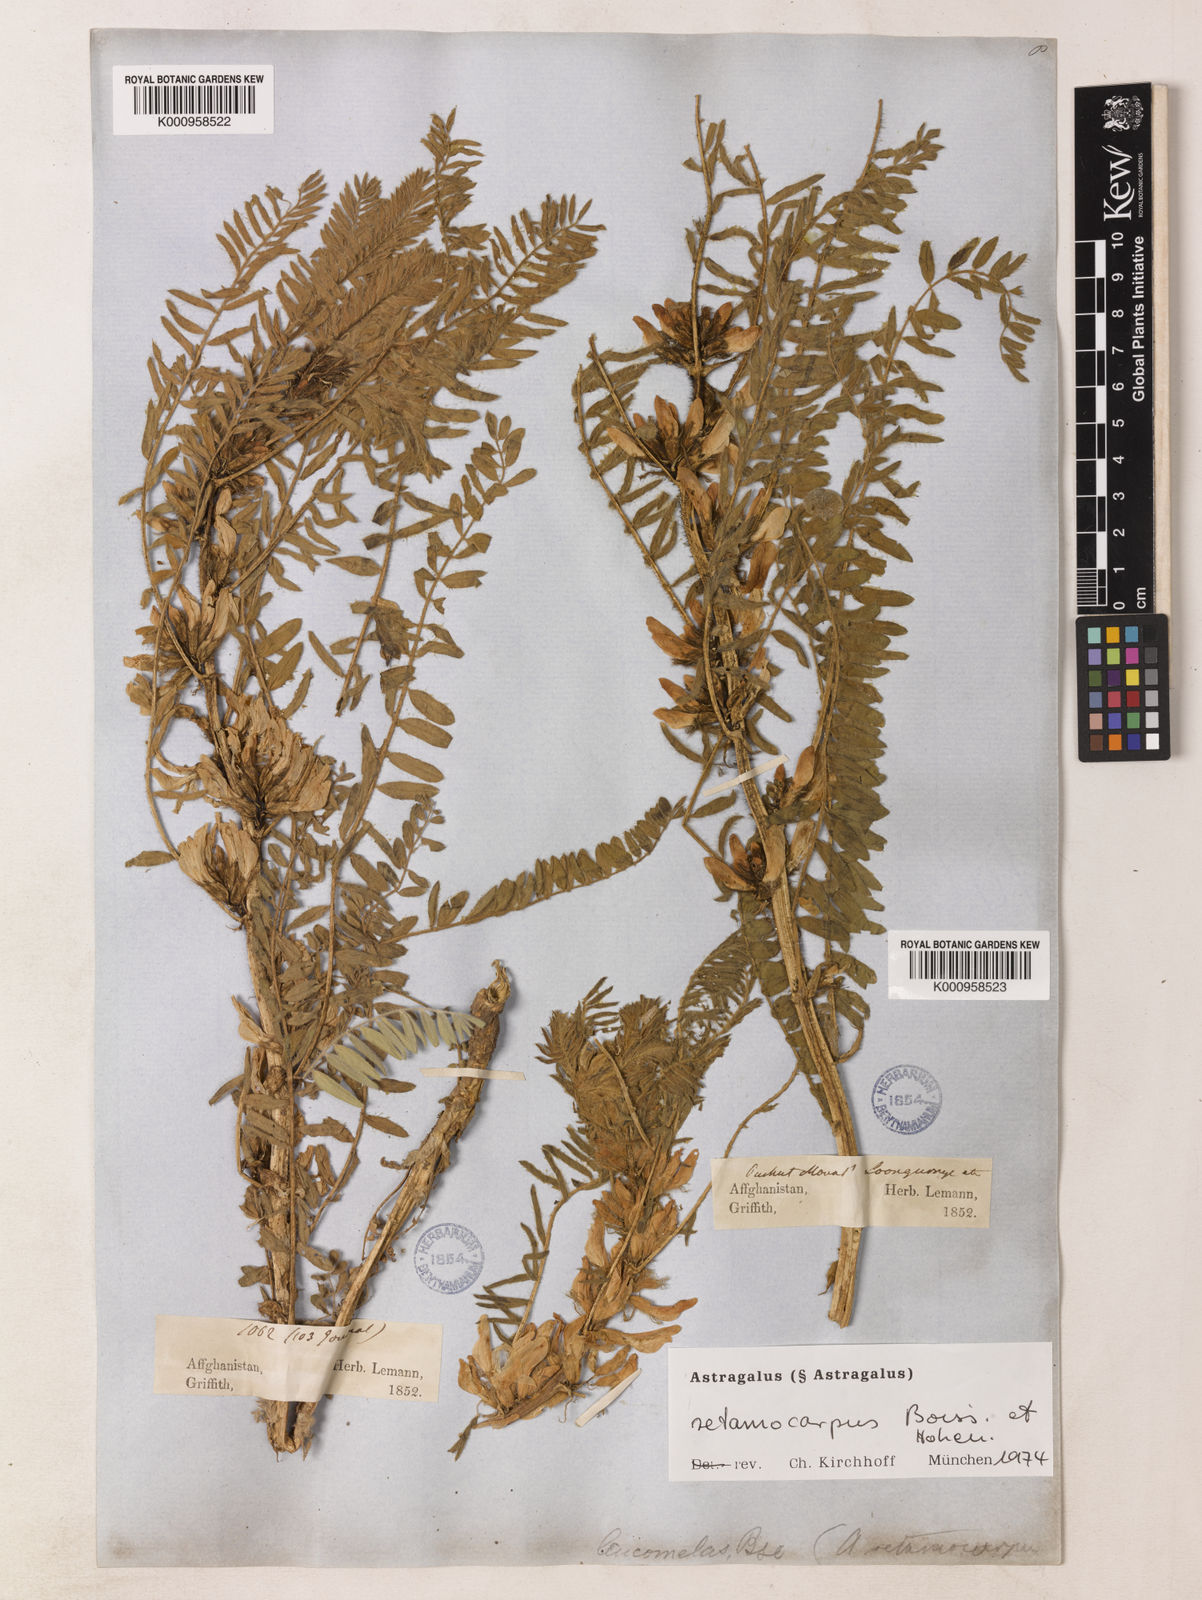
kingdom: Plantae
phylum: Tracheophyta
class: Magnoliopsida
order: Fabales
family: Fabaceae
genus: Astragalus
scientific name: Astragalus
